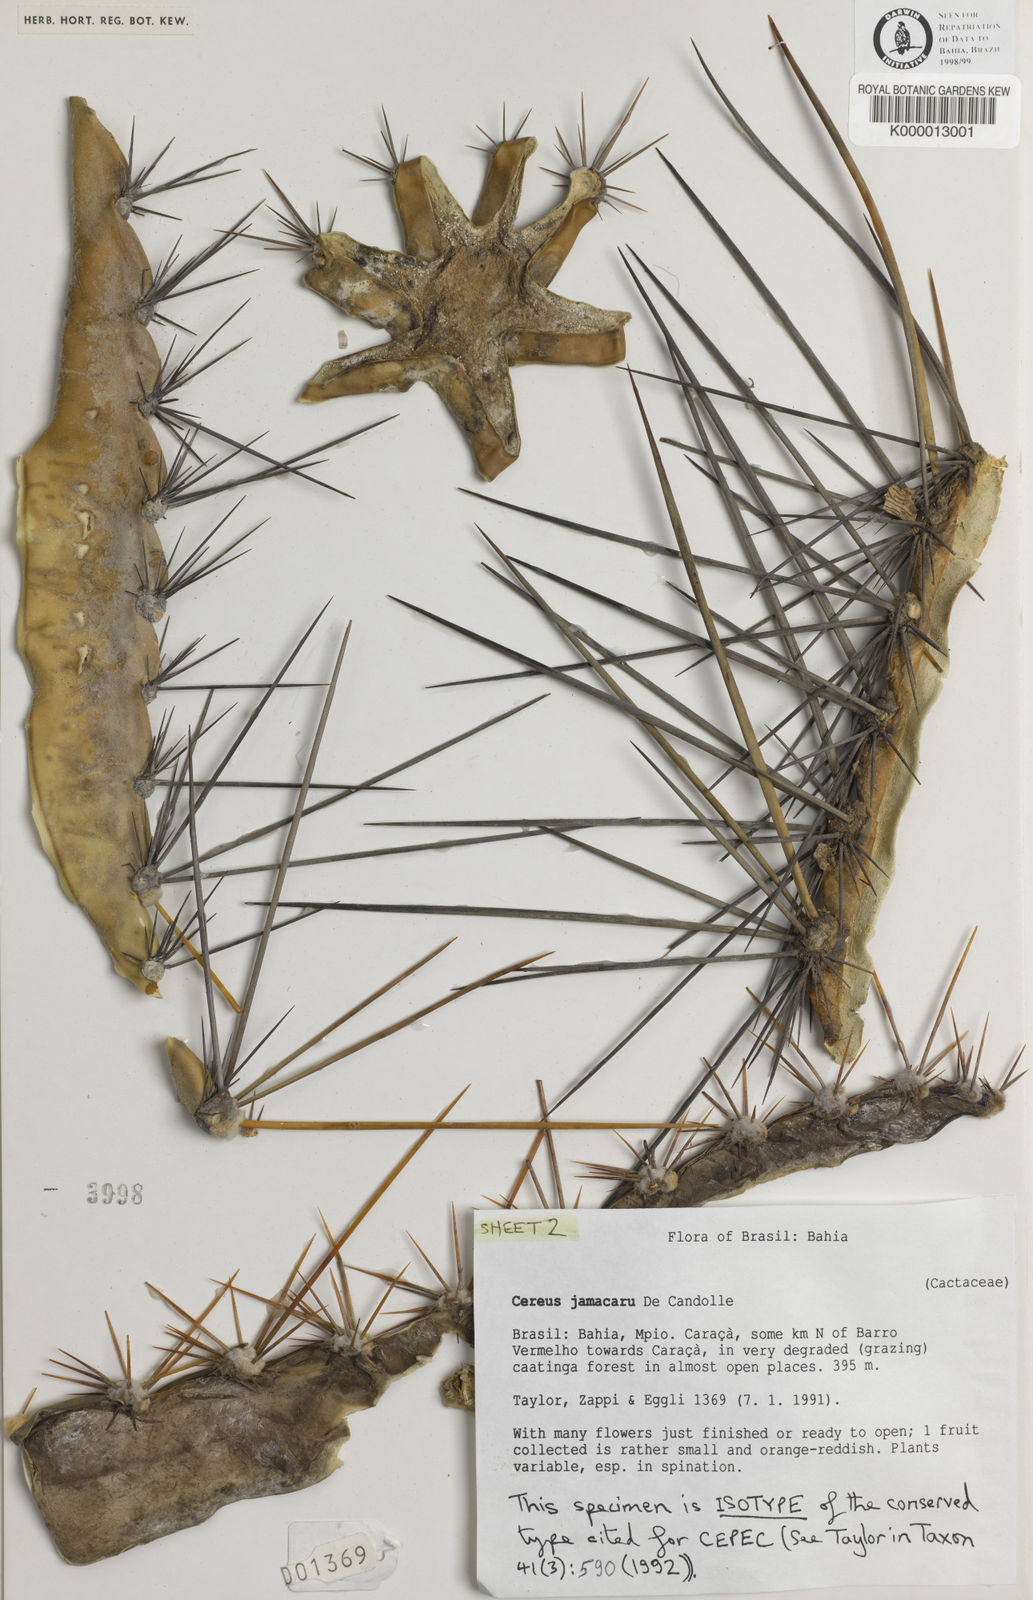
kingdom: Plantae
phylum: Tracheophyta
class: Magnoliopsida
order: Caryophyllales
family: Cactaceae
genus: Cereus
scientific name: Cereus jamacaru
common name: Queen-of-the-night
